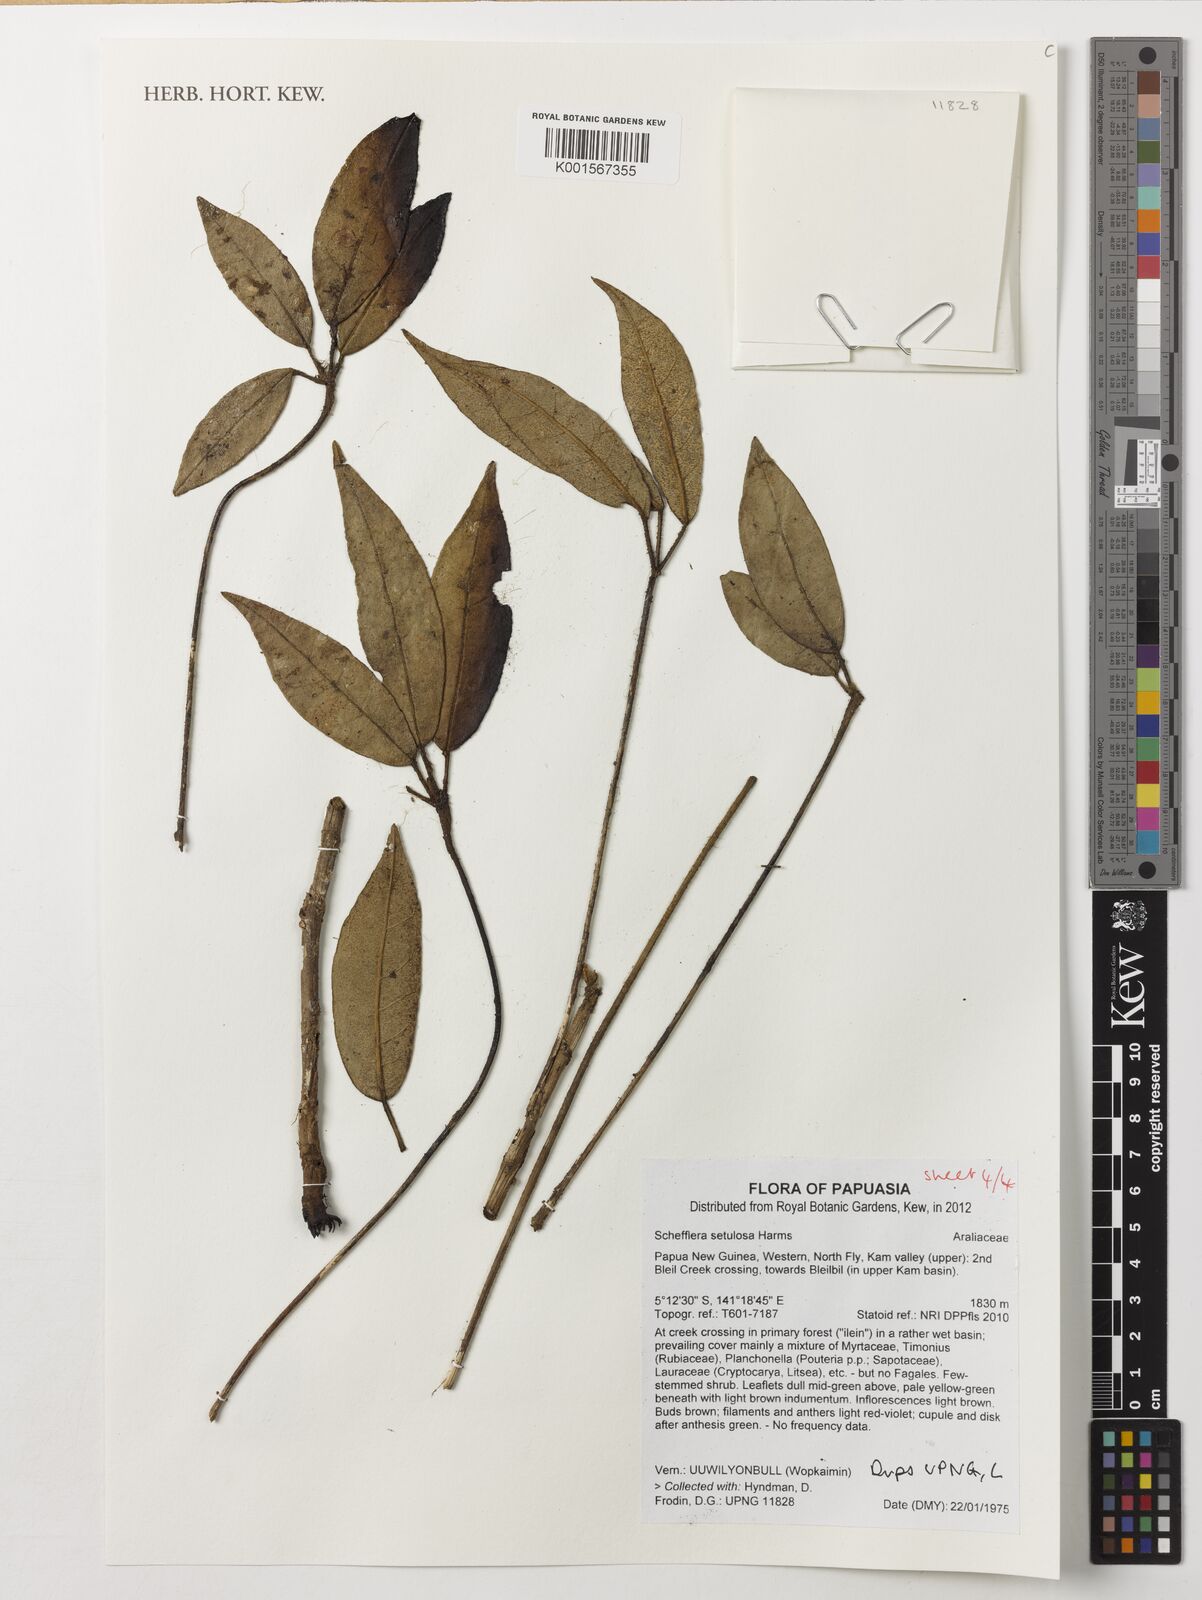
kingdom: Plantae
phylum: Tracheophyta
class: Magnoliopsida
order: Apiales
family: Araliaceae
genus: Heptapleurum
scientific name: Heptapleurum setulosum
